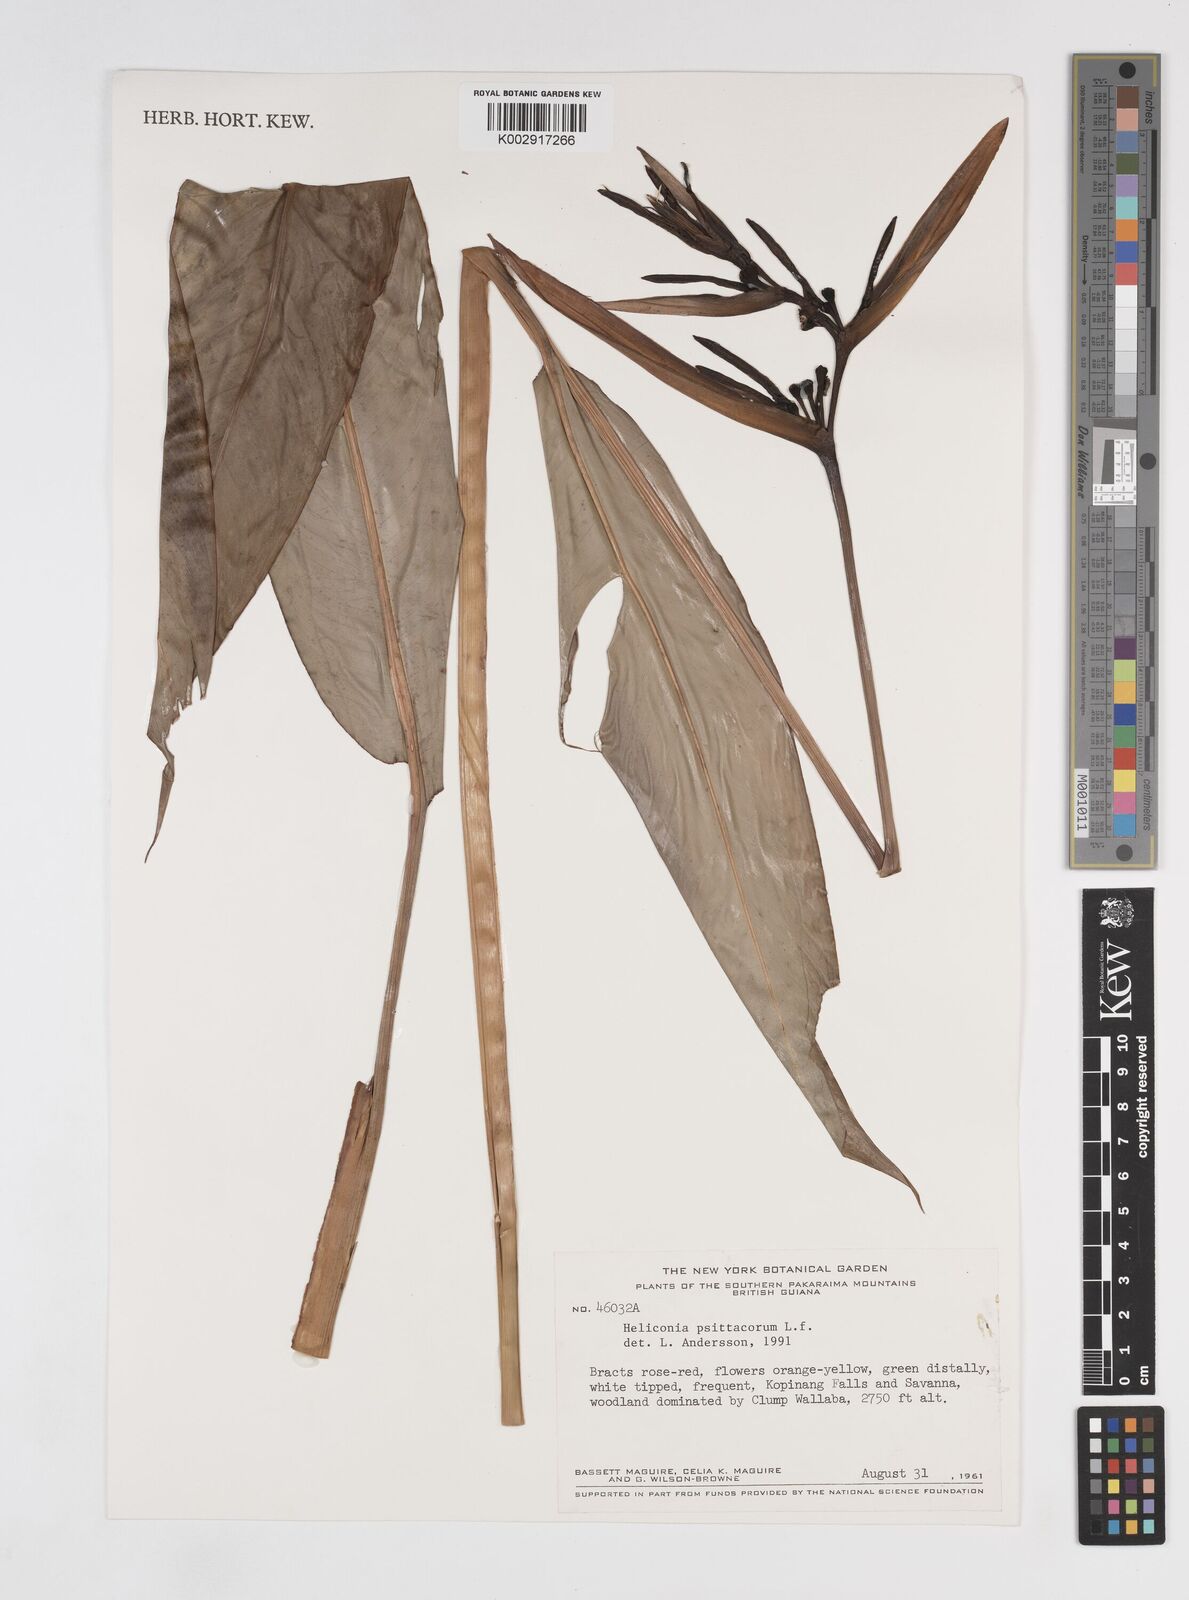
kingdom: Plantae
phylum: Tracheophyta
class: Liliopsida
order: Zingiberales
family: Heliconiaceae
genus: Heliconia
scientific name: Heliconia psittacorum
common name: Parrot's-flower
